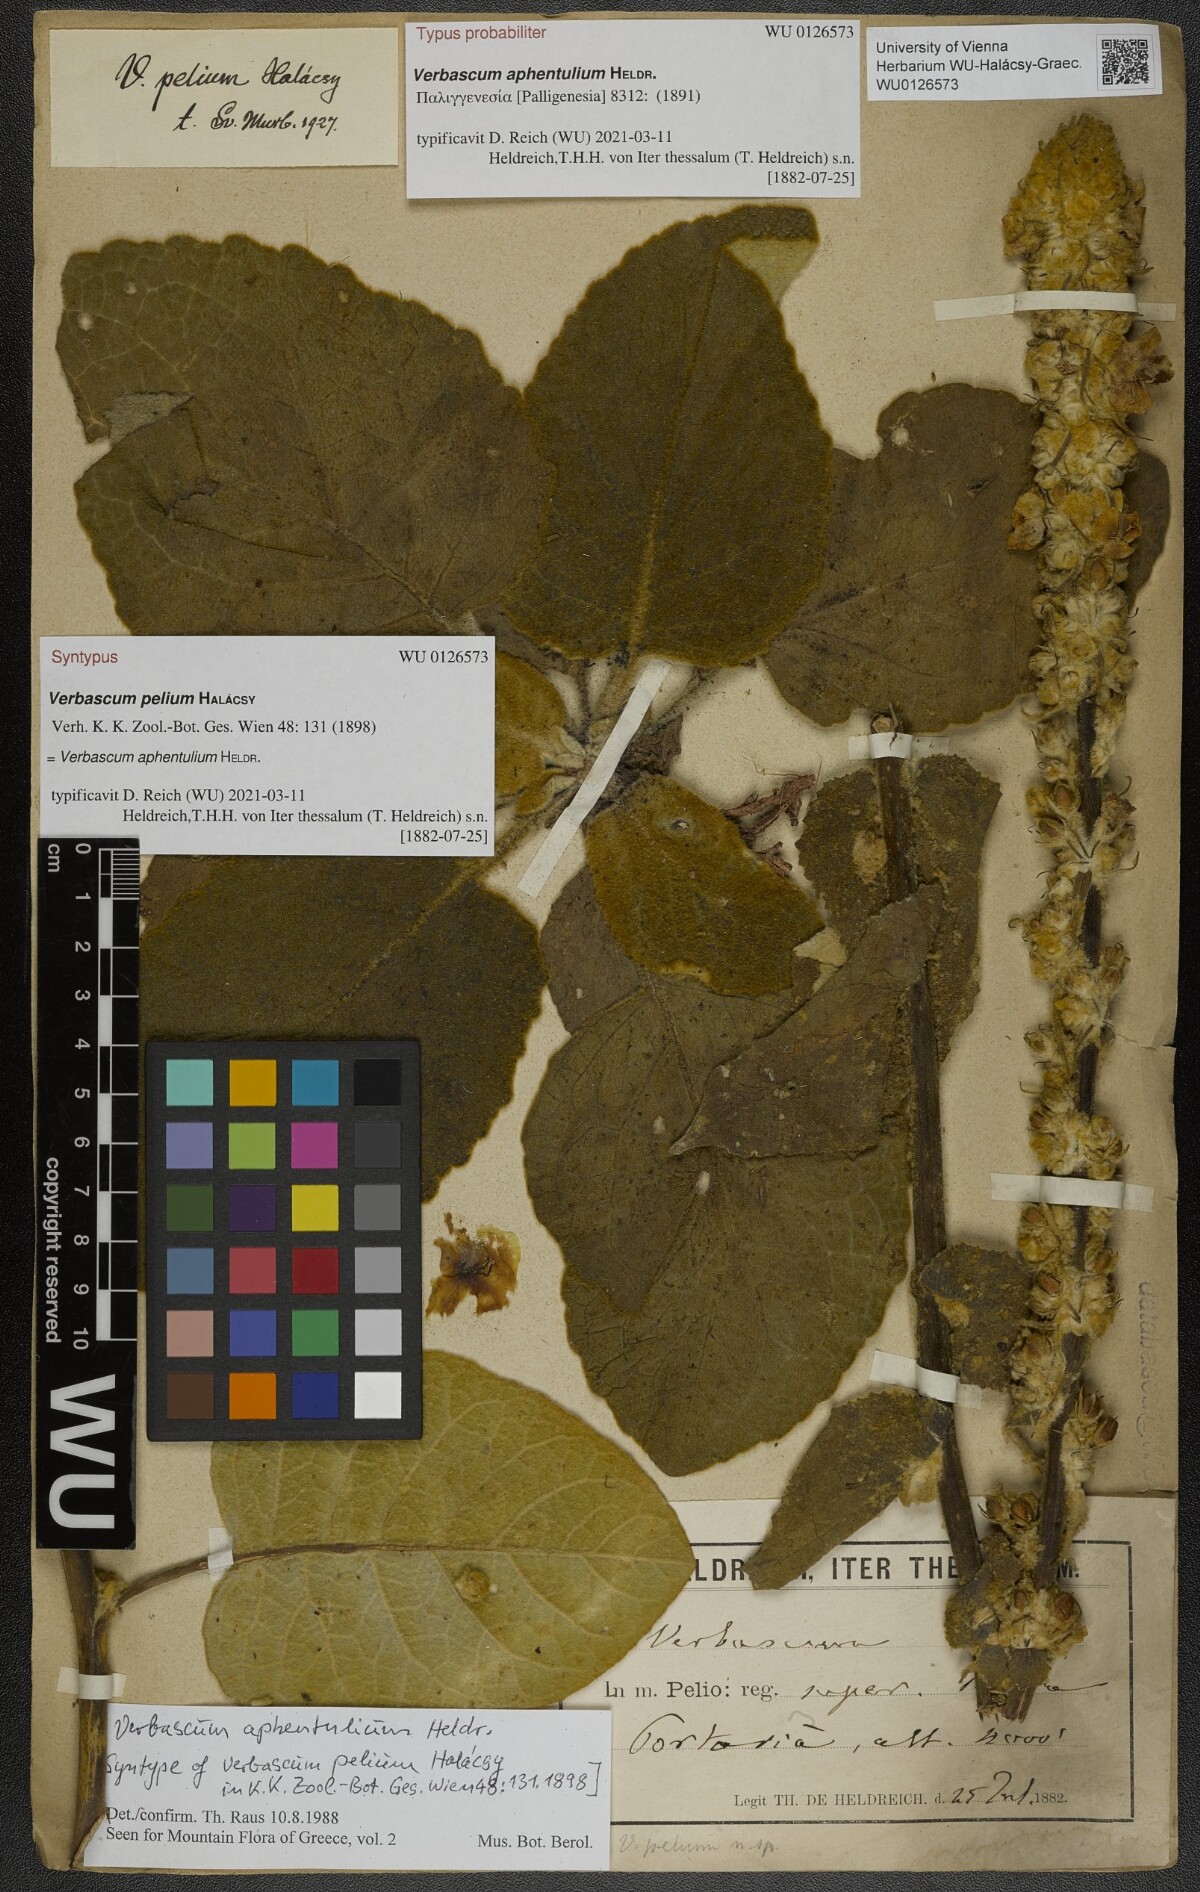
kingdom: Plantae
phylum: Tracheophyta
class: Magnoliopsida
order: Lamiales
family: Scrophulariaceae
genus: Verbascum
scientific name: Verbascum aphentulium
